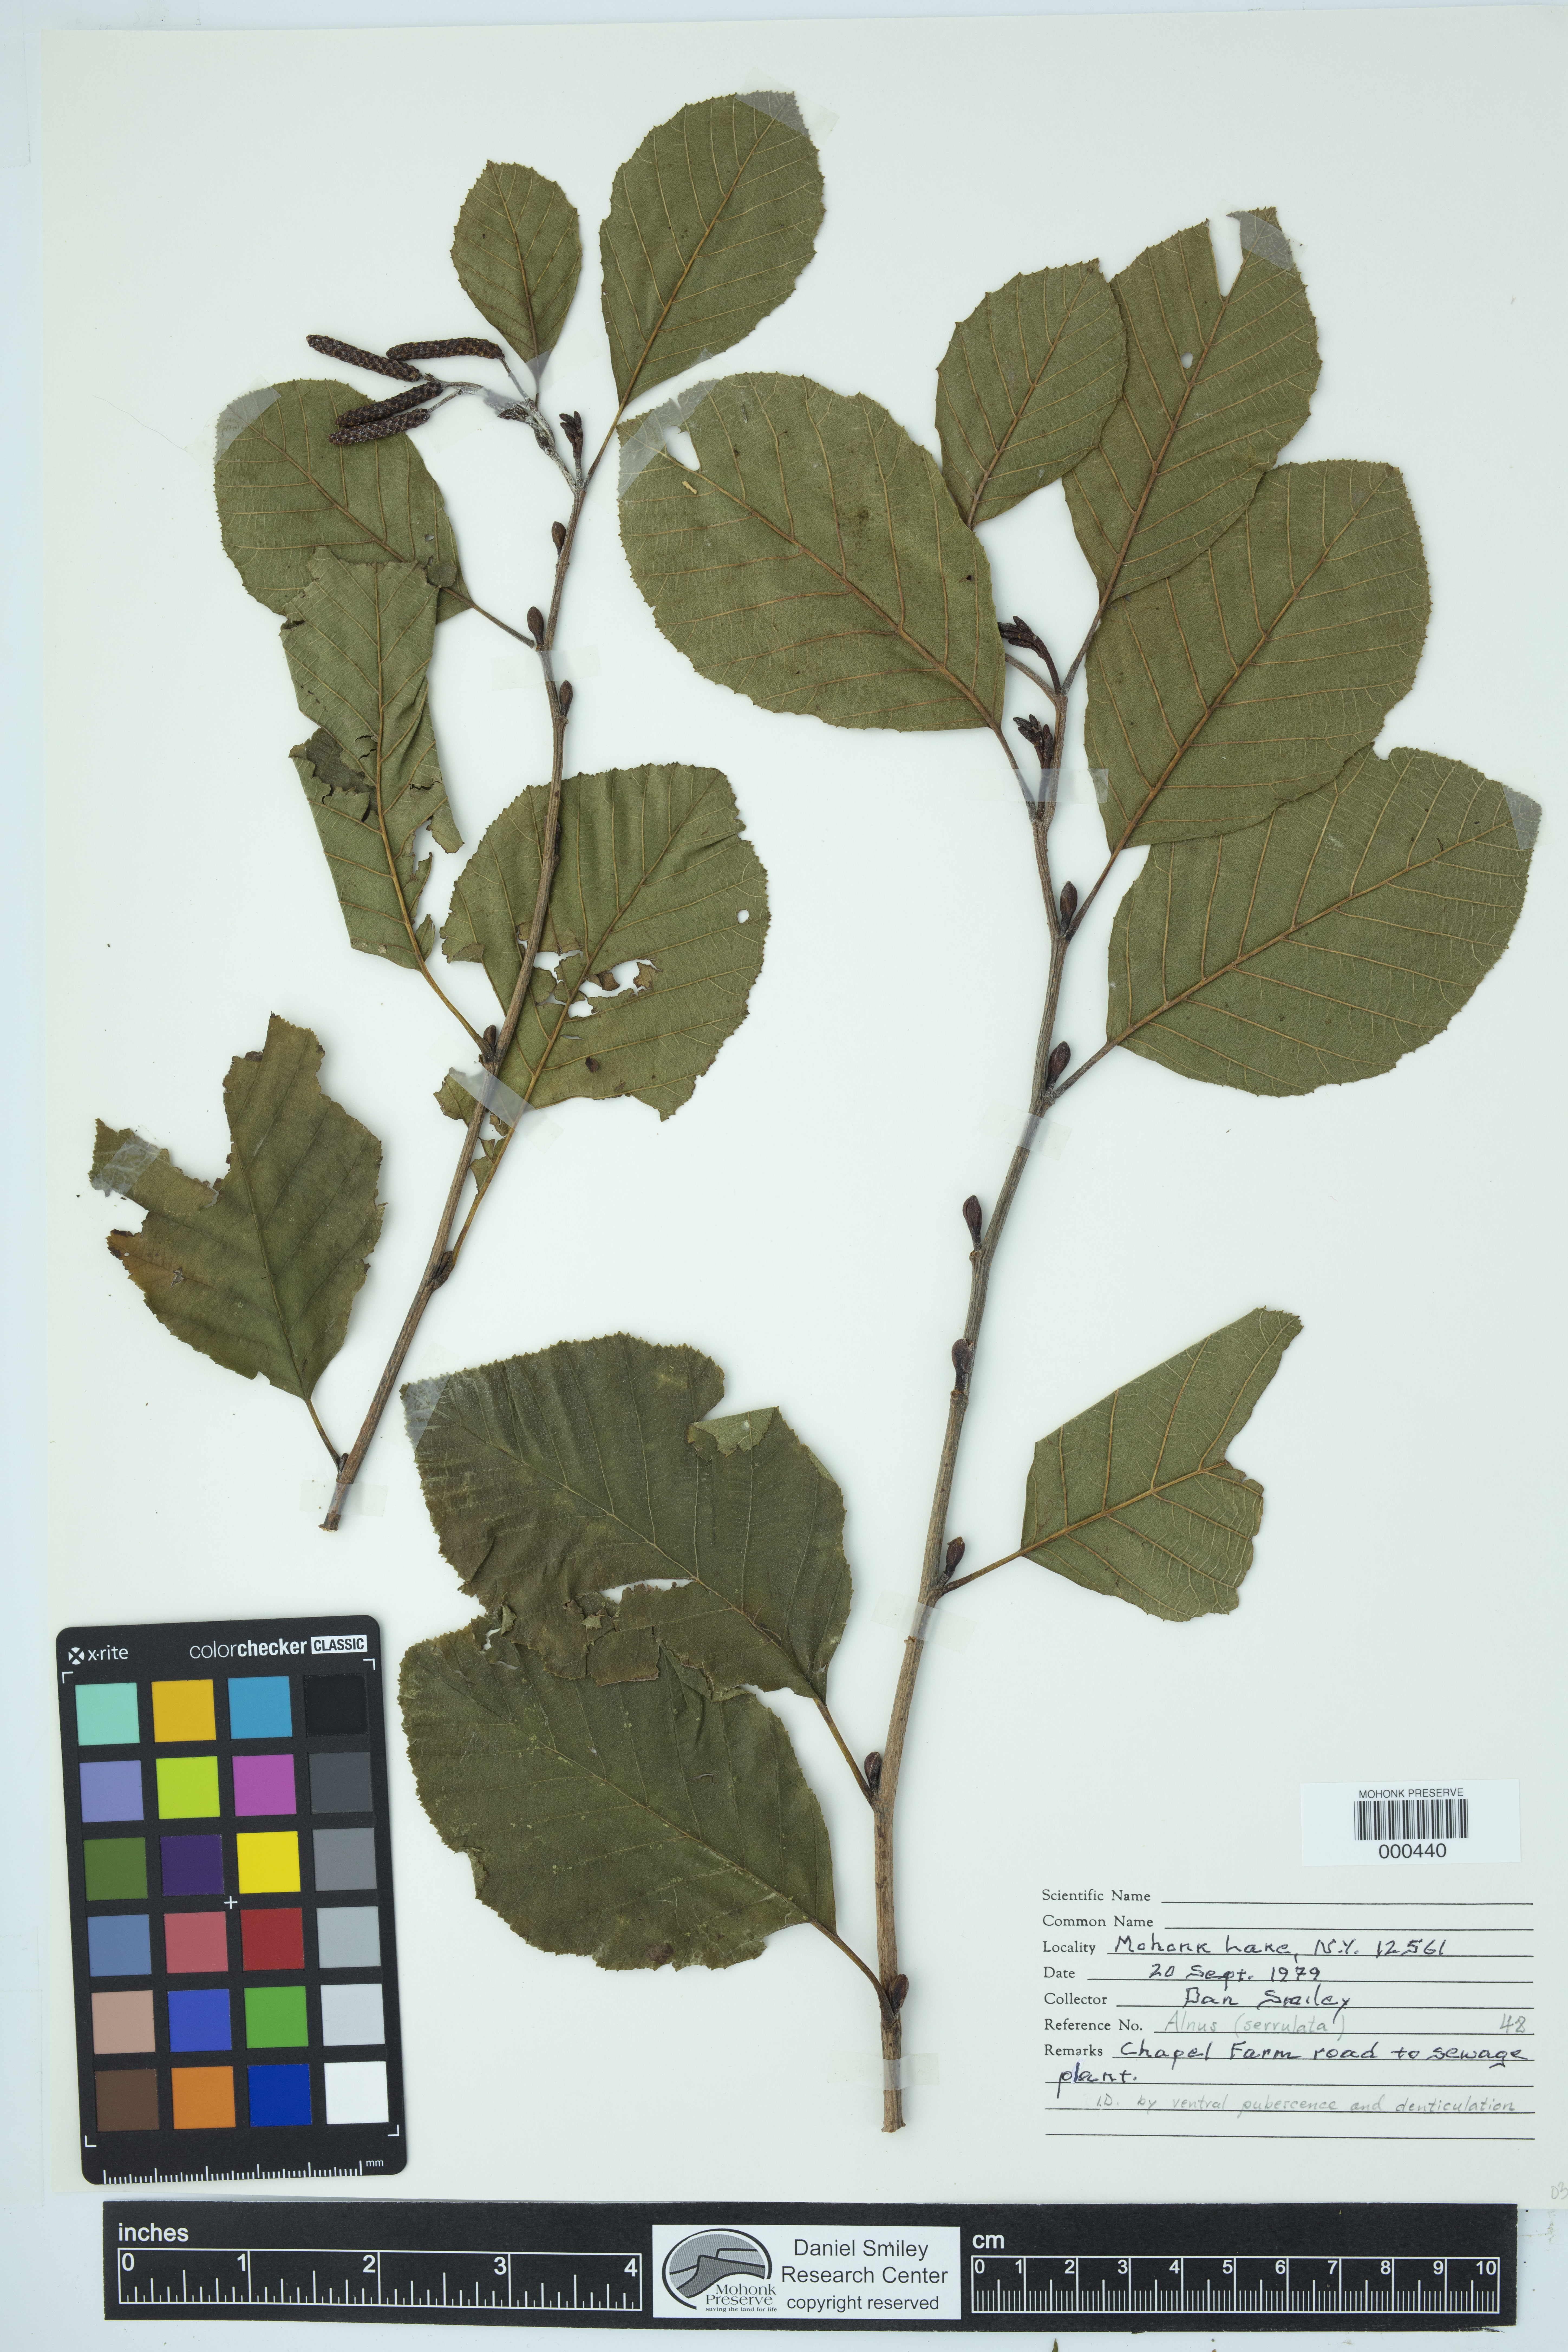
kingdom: Plantae
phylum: Tracheophyta
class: Magnoliopsida
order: Fagales
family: Betulaceae
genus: Alnus
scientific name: Alnus serrulata
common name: Hazel alder
